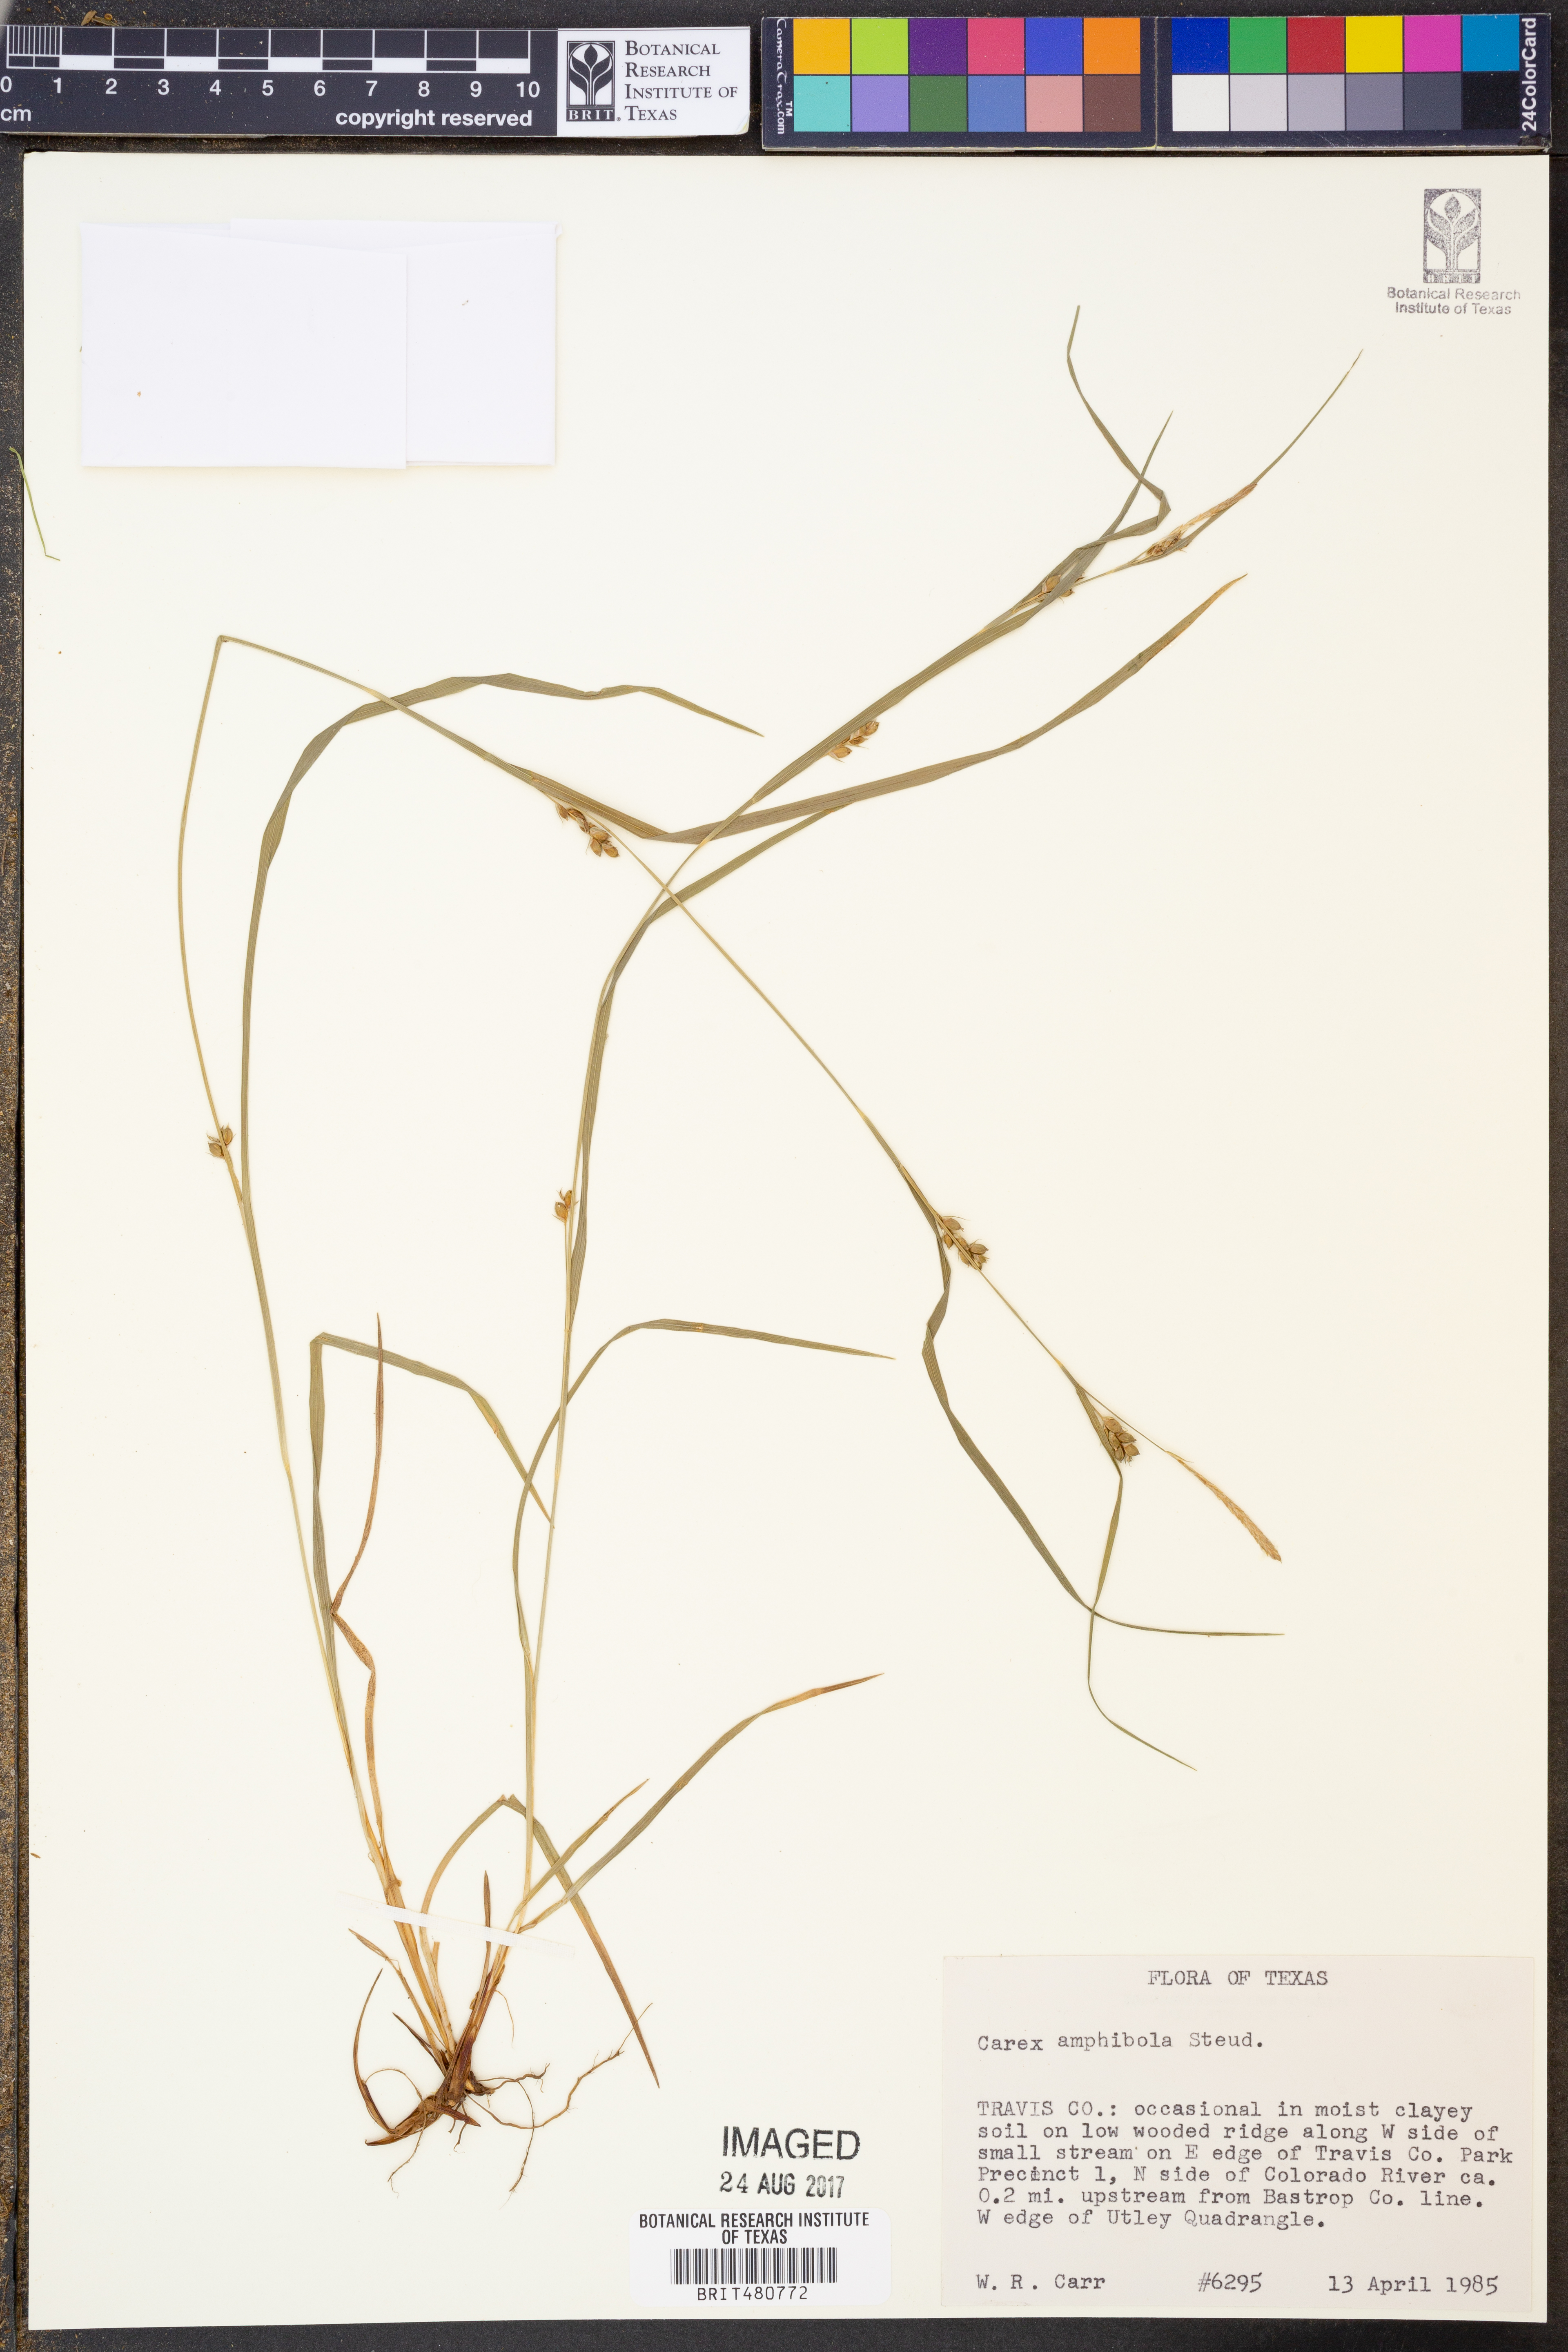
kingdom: Plantae
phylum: Tracheophyta
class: Liliopsida
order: Poales
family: Cyperaceae
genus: Carex
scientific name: Carex amphibola
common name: Amphibious sedge
